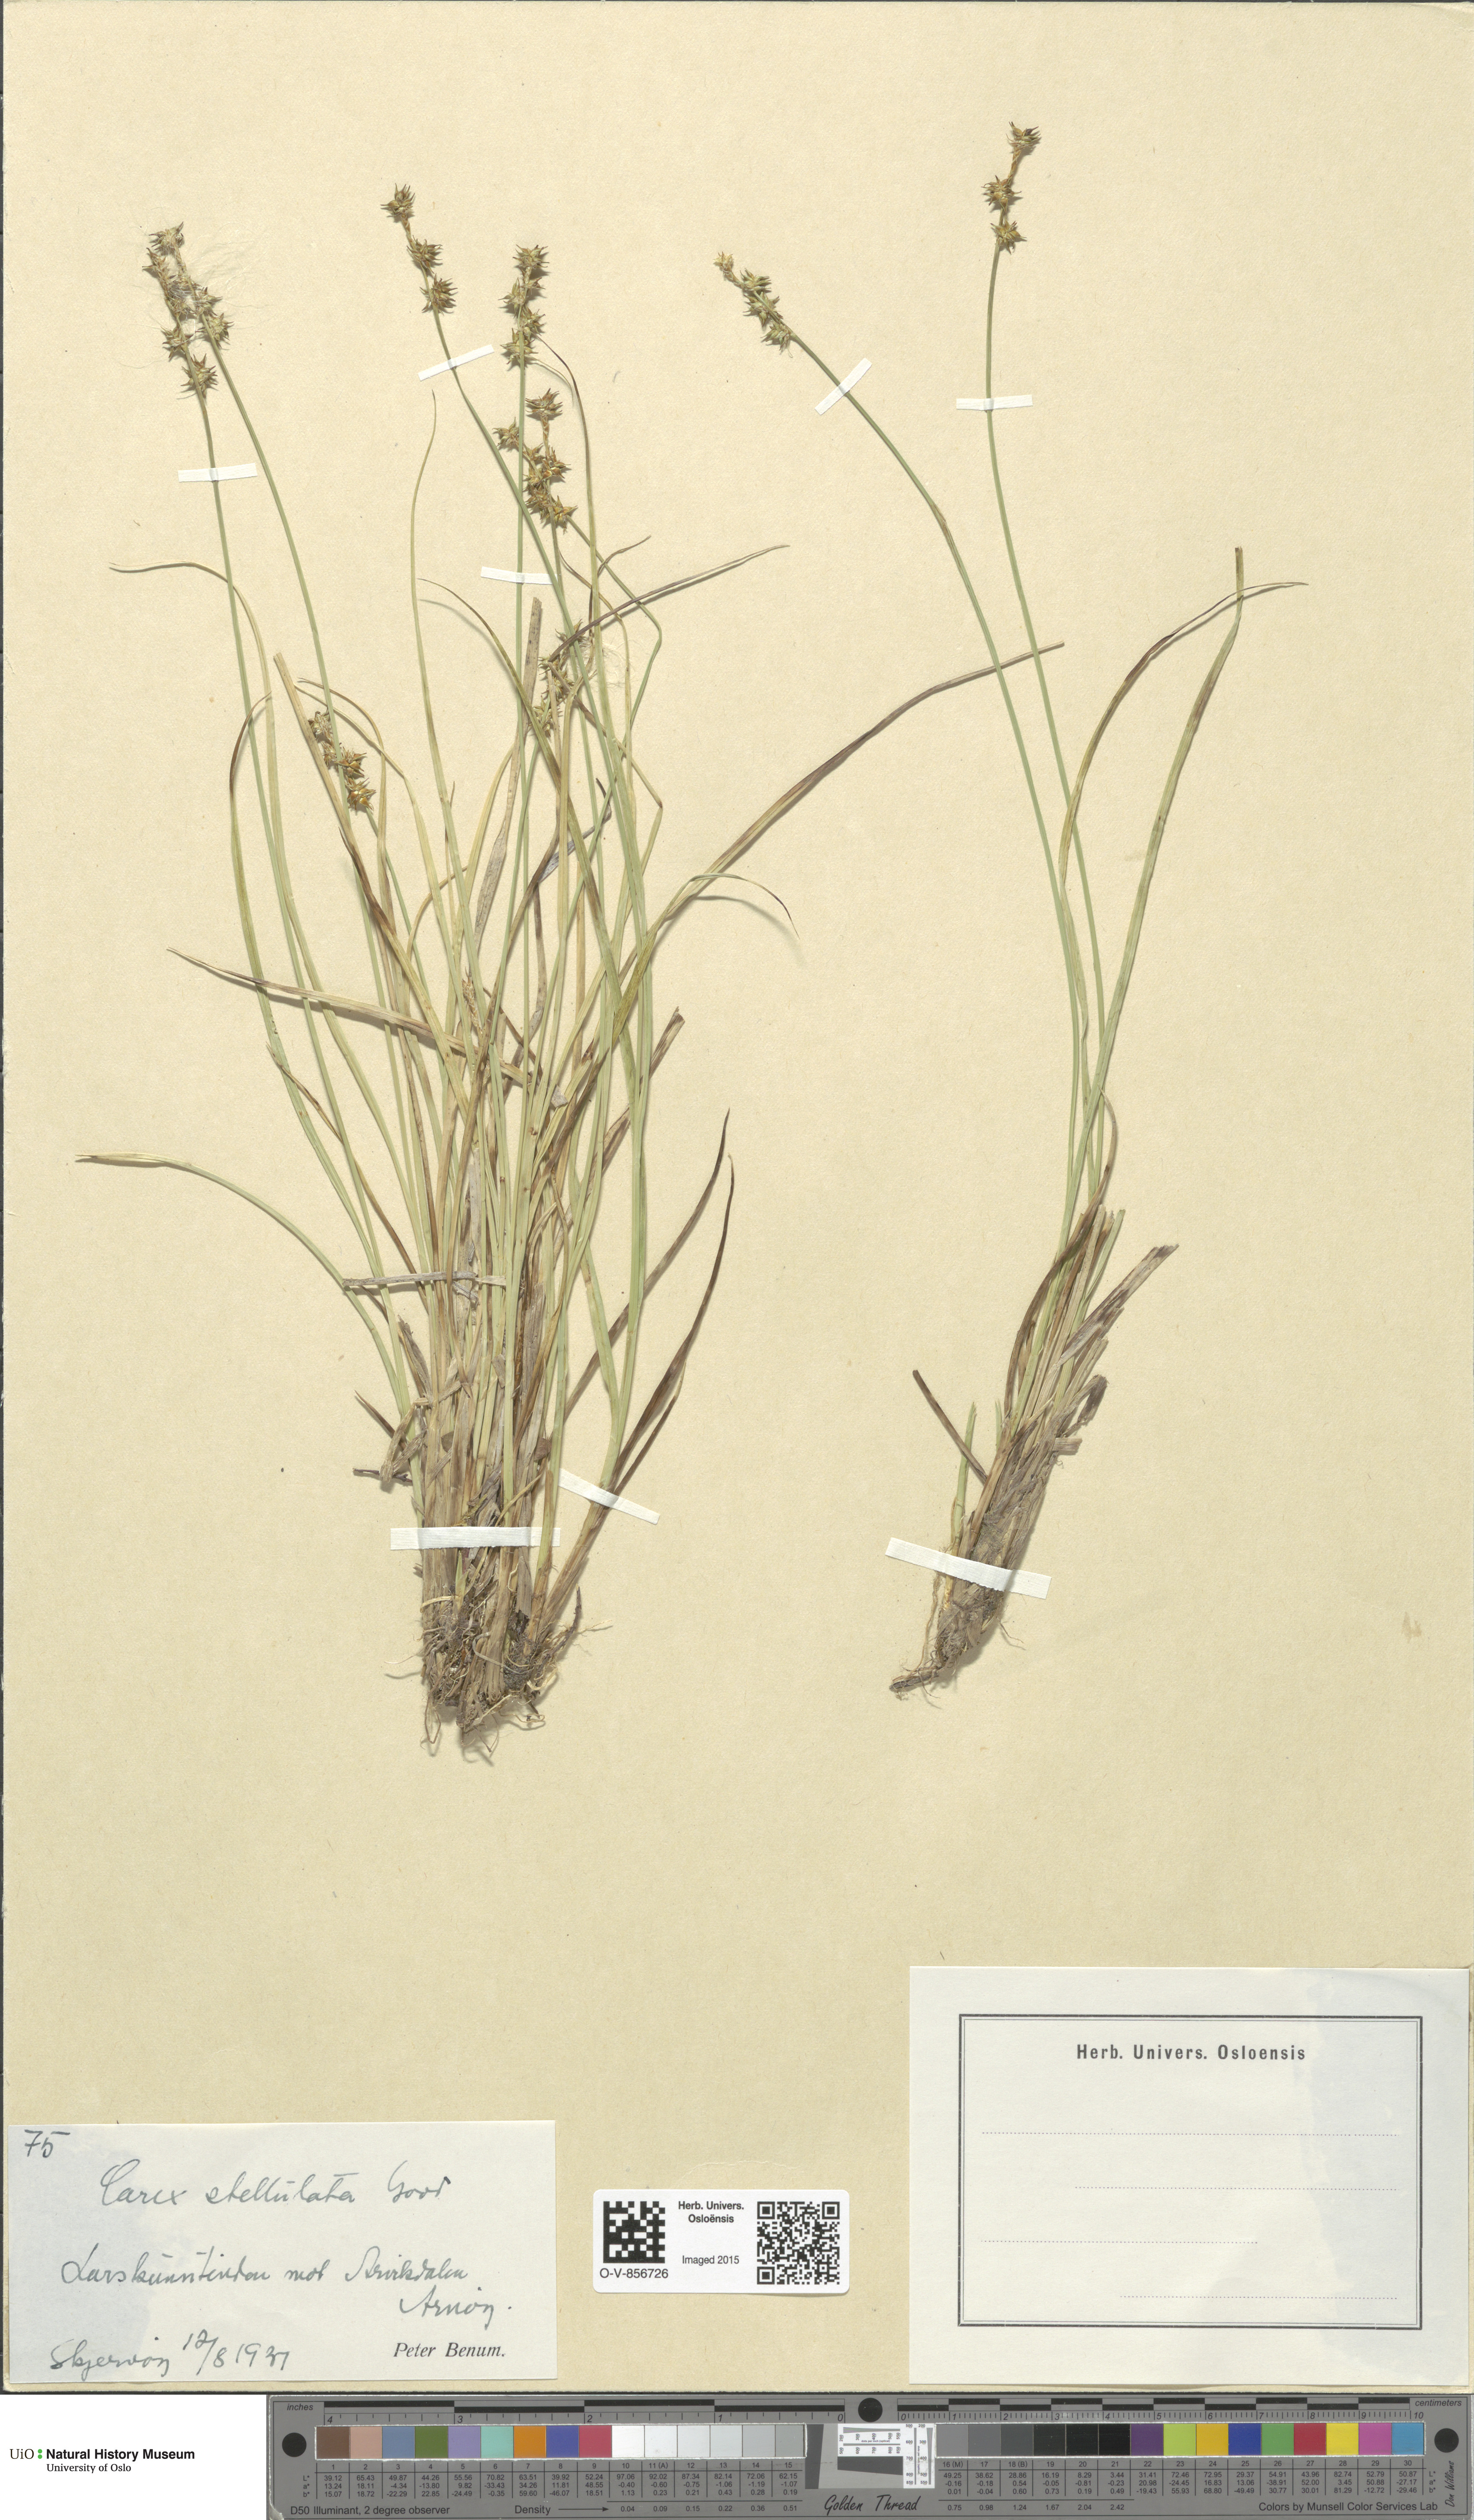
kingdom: Plantae
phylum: Tracheophyta
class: Liliopsida
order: Poales
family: Cyperaceae
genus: Carex
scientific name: Carex echinata
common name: Star sedge
